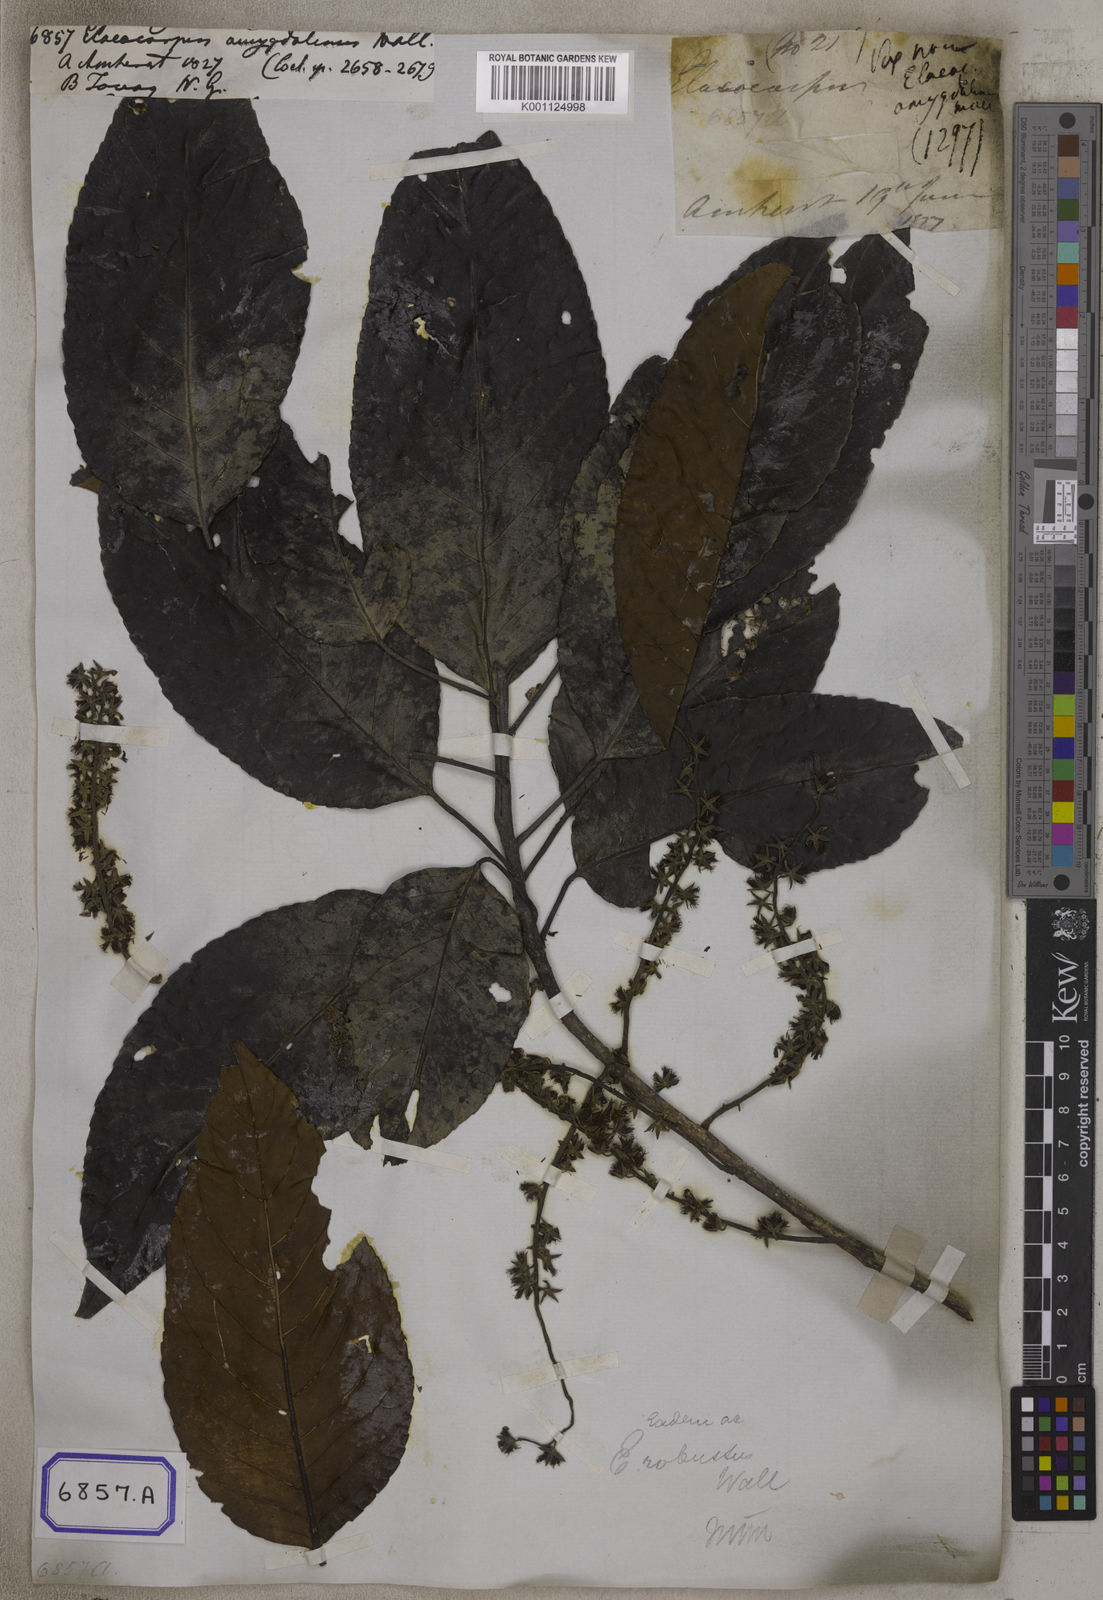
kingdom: Plantae
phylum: Tracheophyta
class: Magnoliopsida
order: Oxalidales
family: Elaeocarpaceae
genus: Elaeocarpus
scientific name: Elaeocarpus robustus
